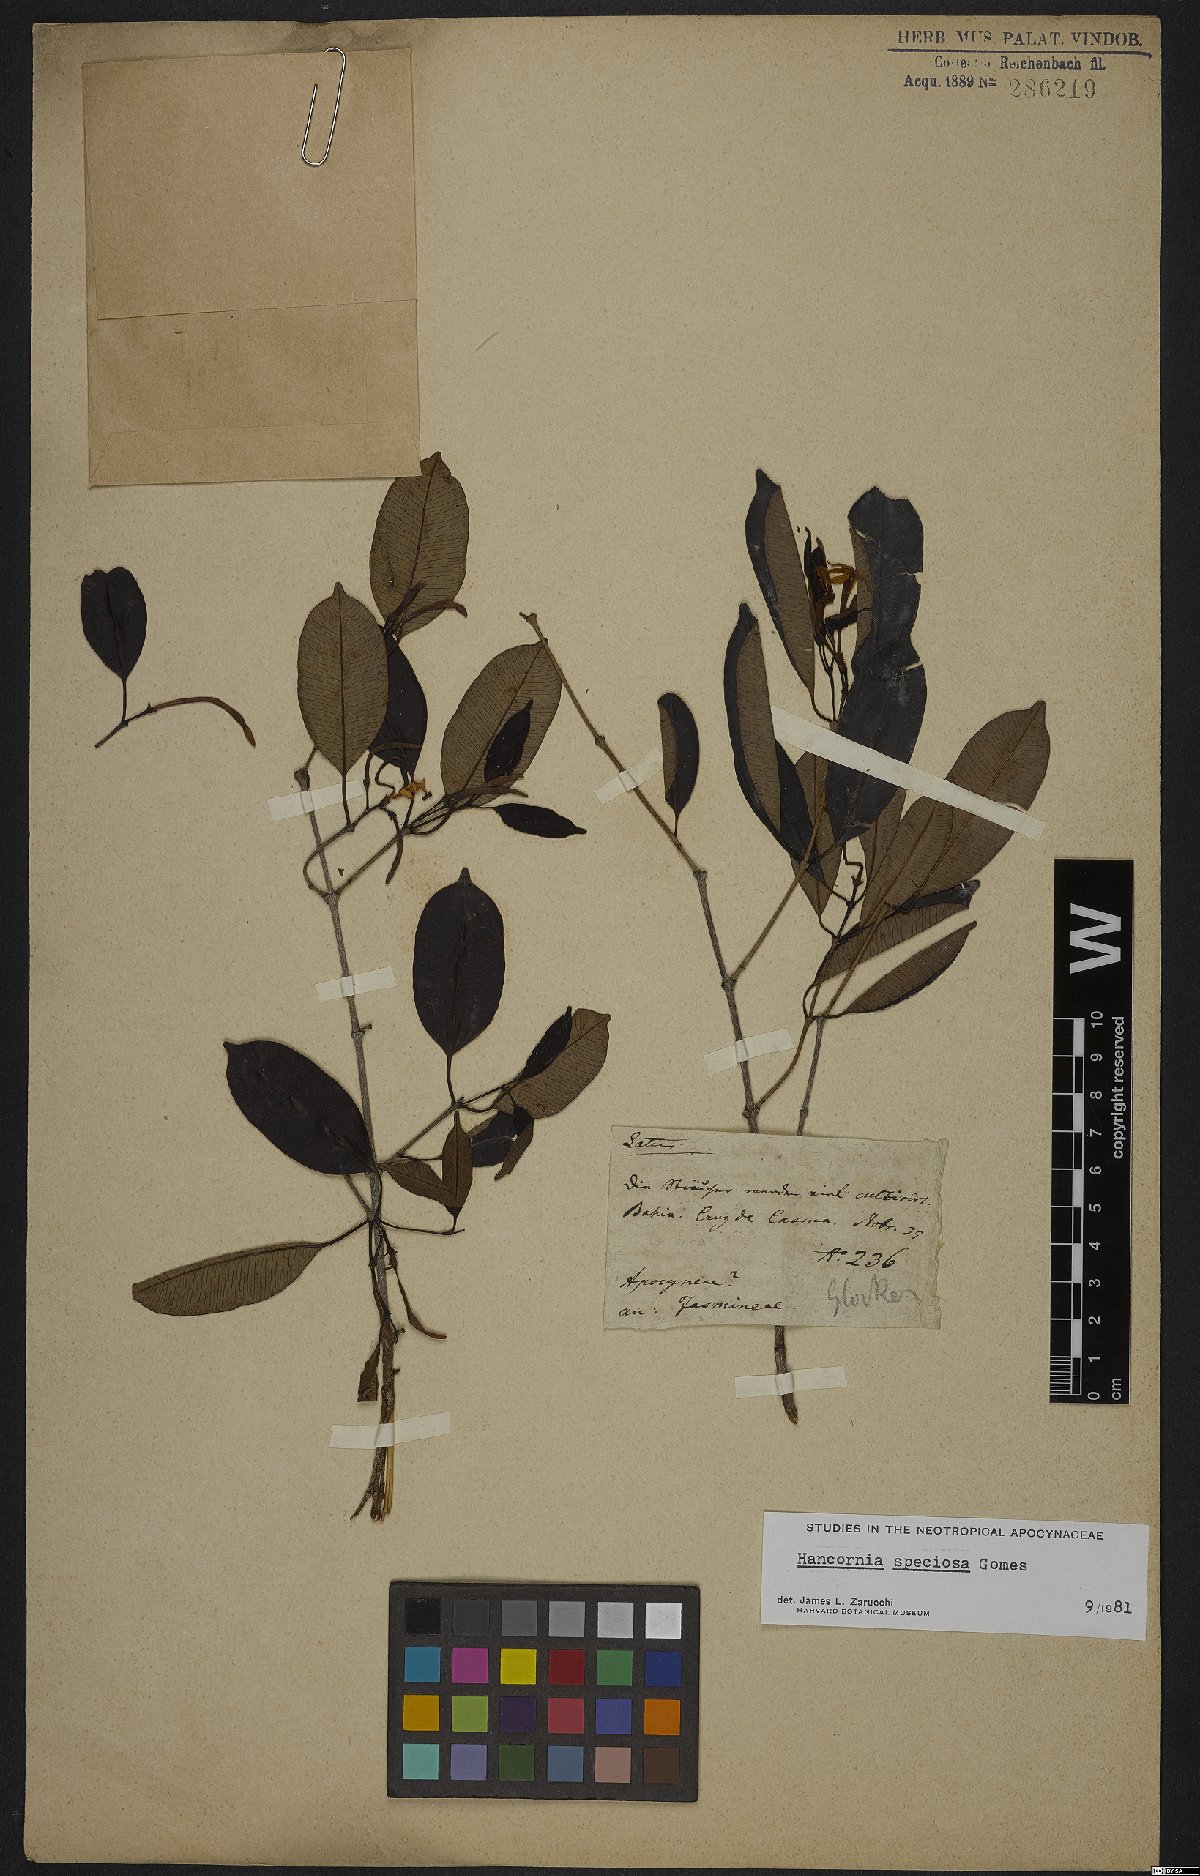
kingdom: Plantae
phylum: Tracheophyta
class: Magnoliopsida
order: Gentianales
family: Apocynaceae
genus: Hancornia
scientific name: Hancornia speciosa
